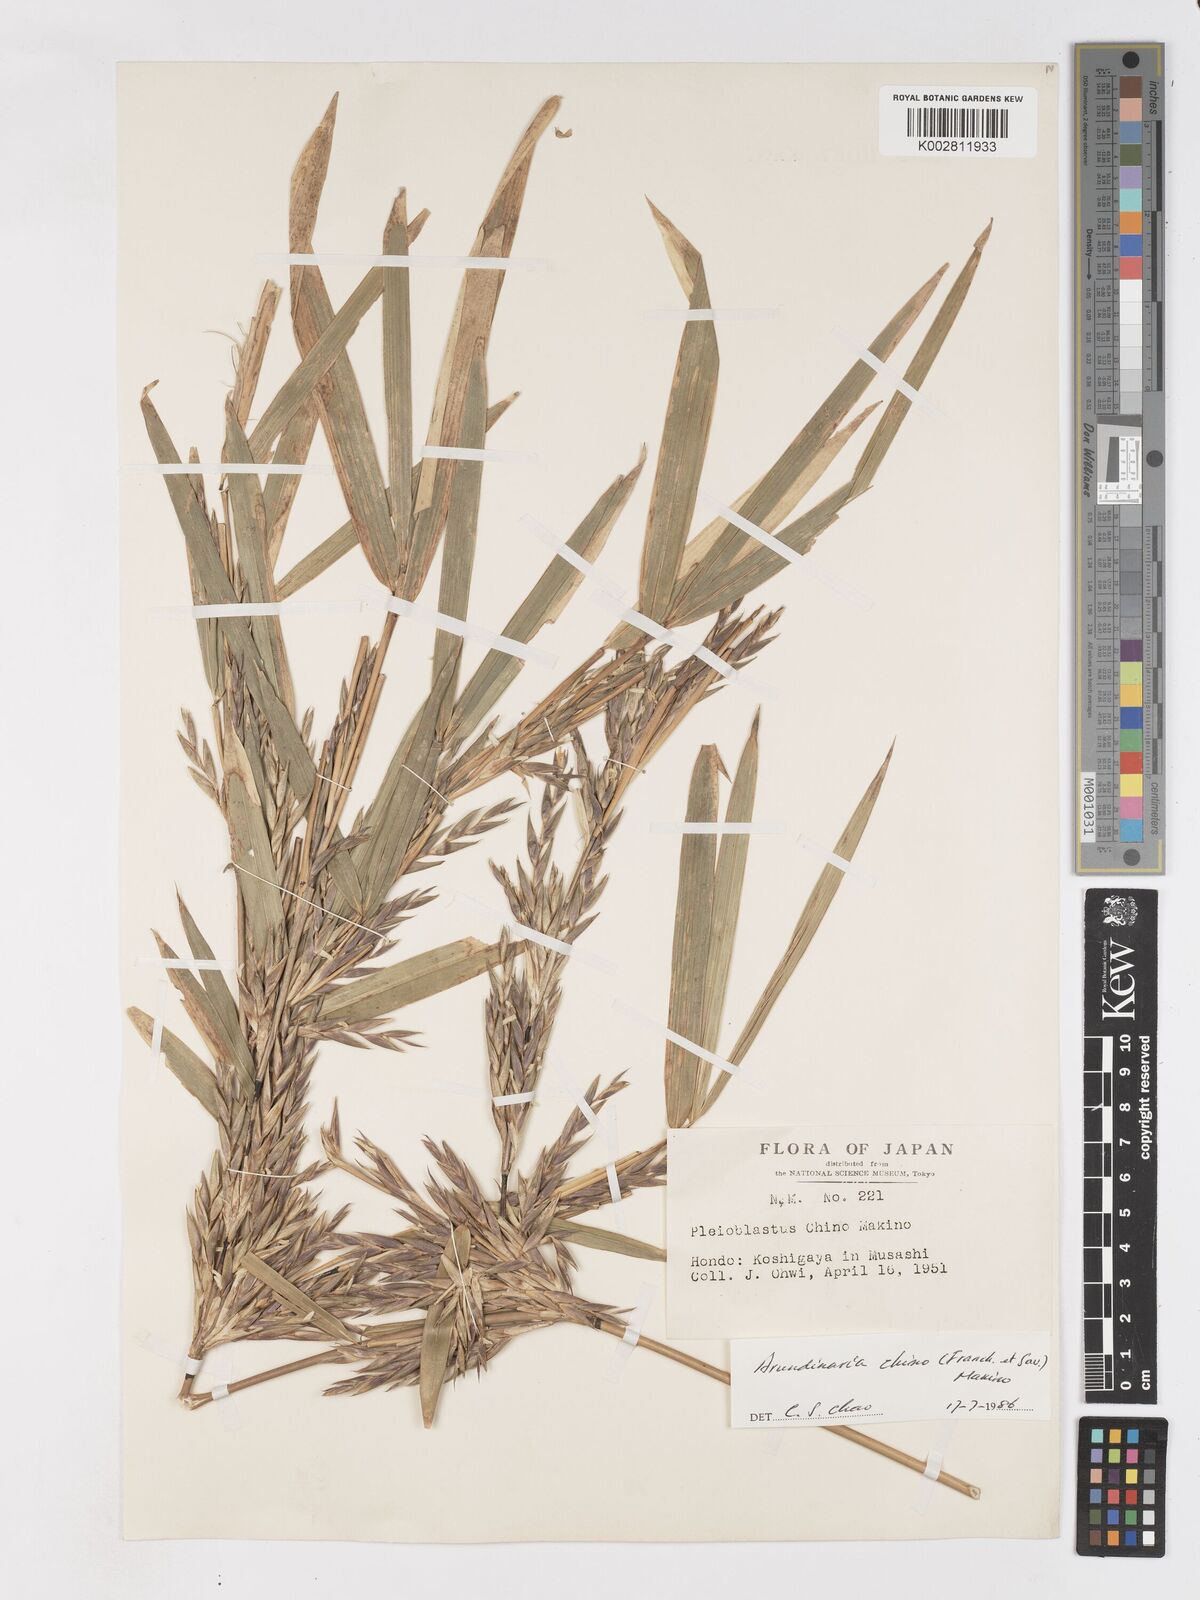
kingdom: Plantae
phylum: Tracheophyta
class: Liliopsida
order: Poales
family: Poaceae
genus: Pleioblastus
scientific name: Pleioblastus argenteostriatus
